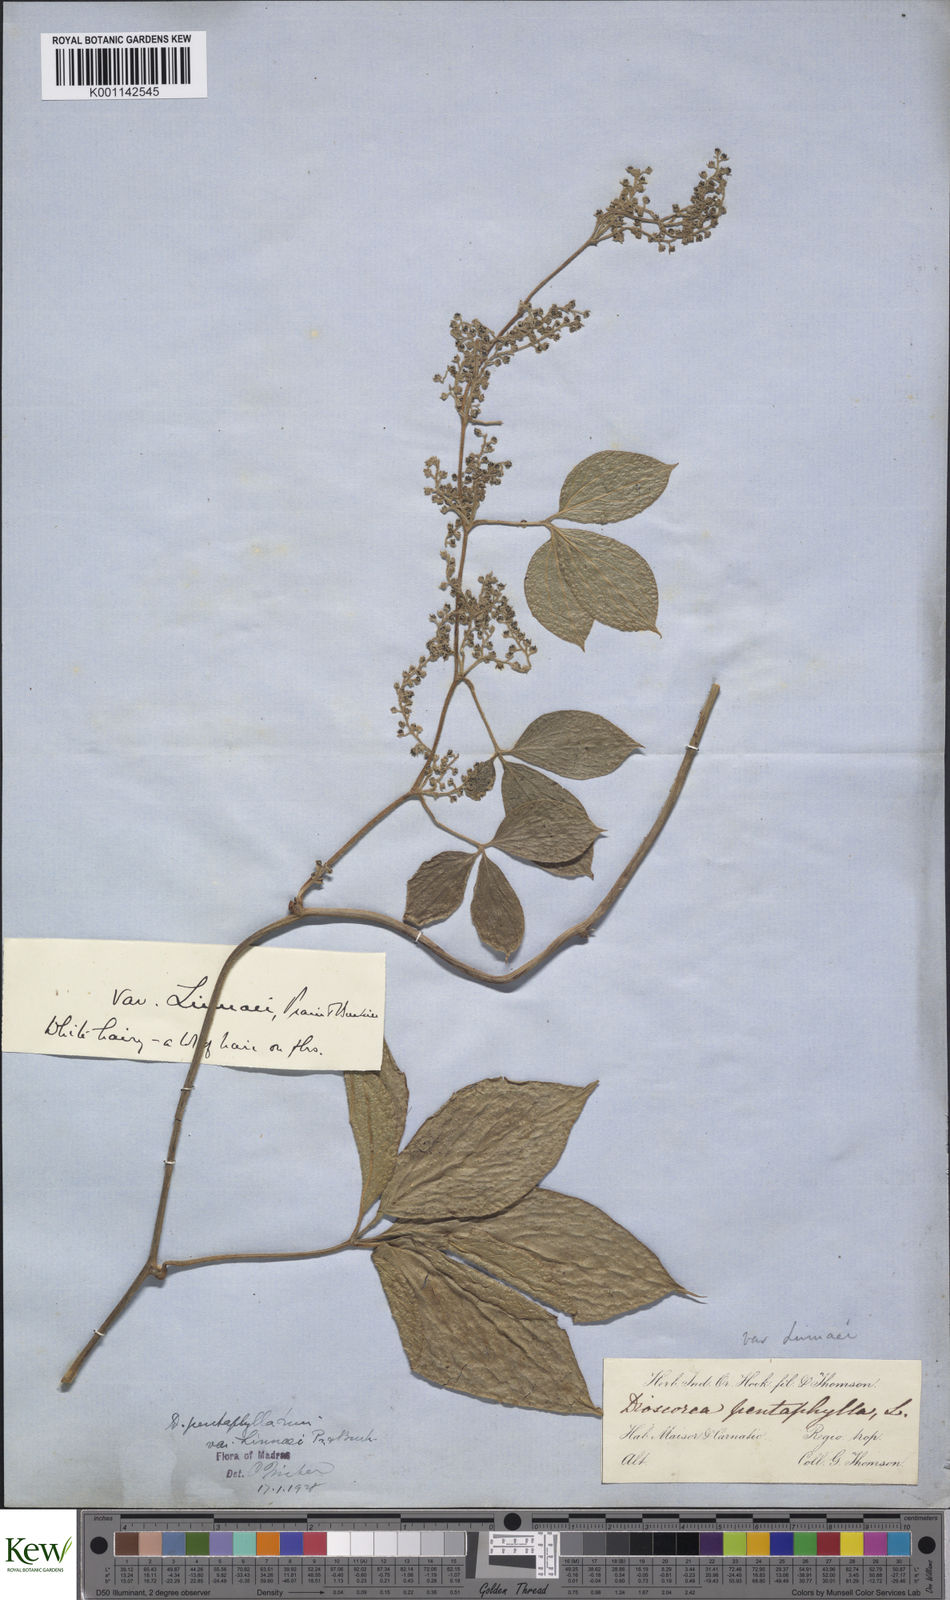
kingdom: Plantae
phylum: Tracheophyta
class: Liliopsida
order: Dioscoreales
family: Dioscoreaceae
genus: Dioscorea
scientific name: Dioscorea pentaphylla
